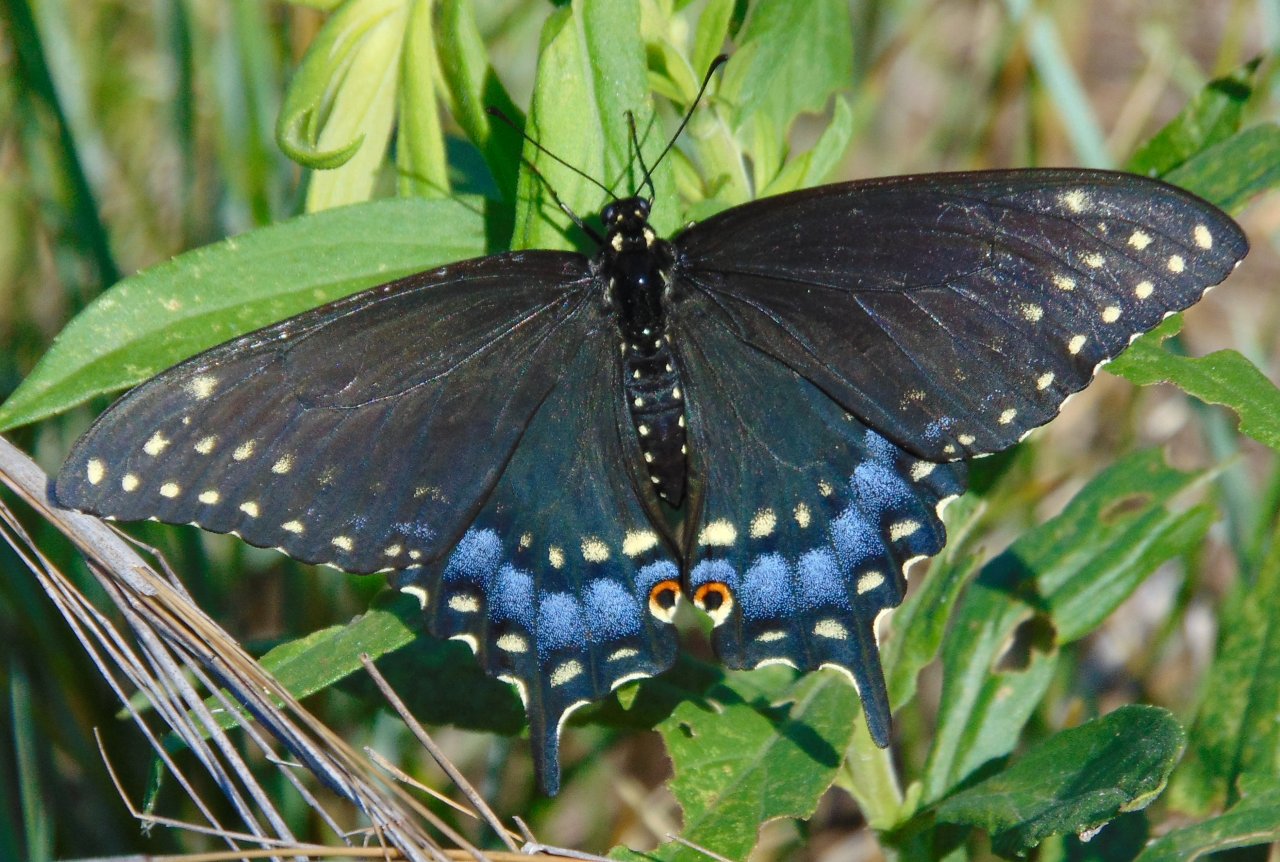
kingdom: Animalia
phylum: Arthropoda
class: Insecta
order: Lepidoptera
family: Papilionidae
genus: Papilio
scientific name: Papilio polyxenes
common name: Black Swallowtail
